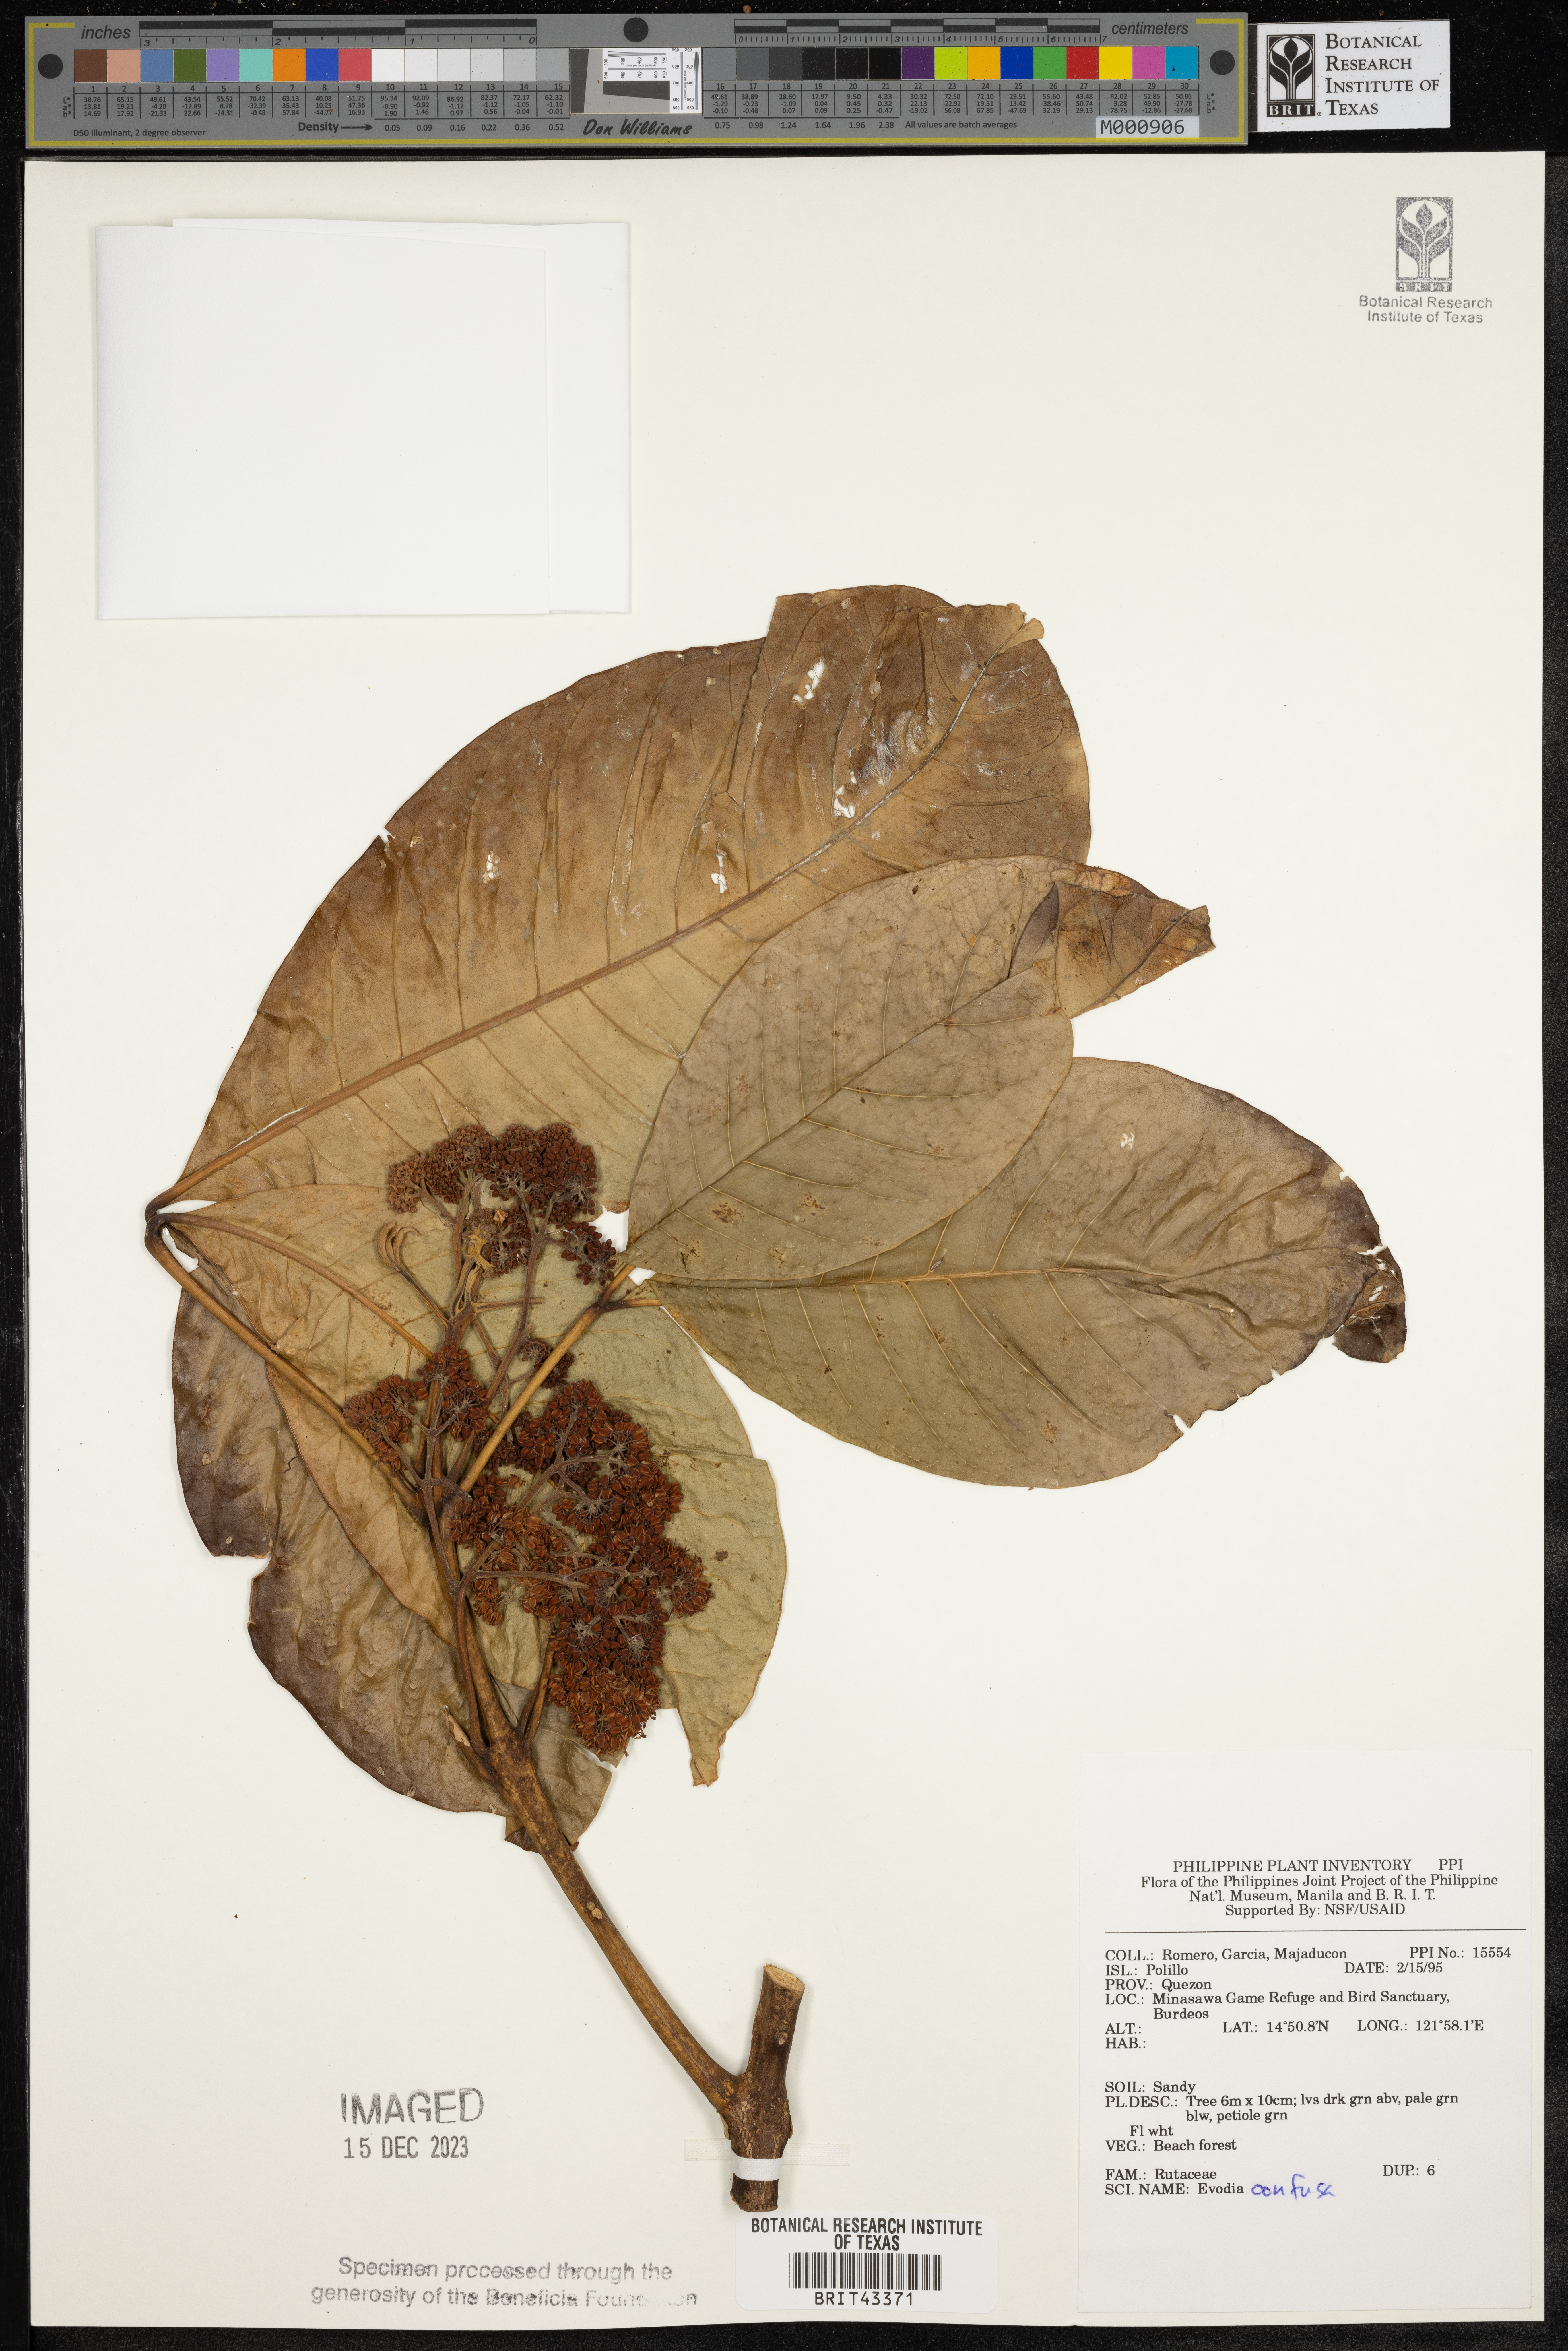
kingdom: Plantae
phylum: Tracheophyta
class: Magnoliopsida
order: Sapindales
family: Rutaceae
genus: Melicope
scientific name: Melicope frutescens
